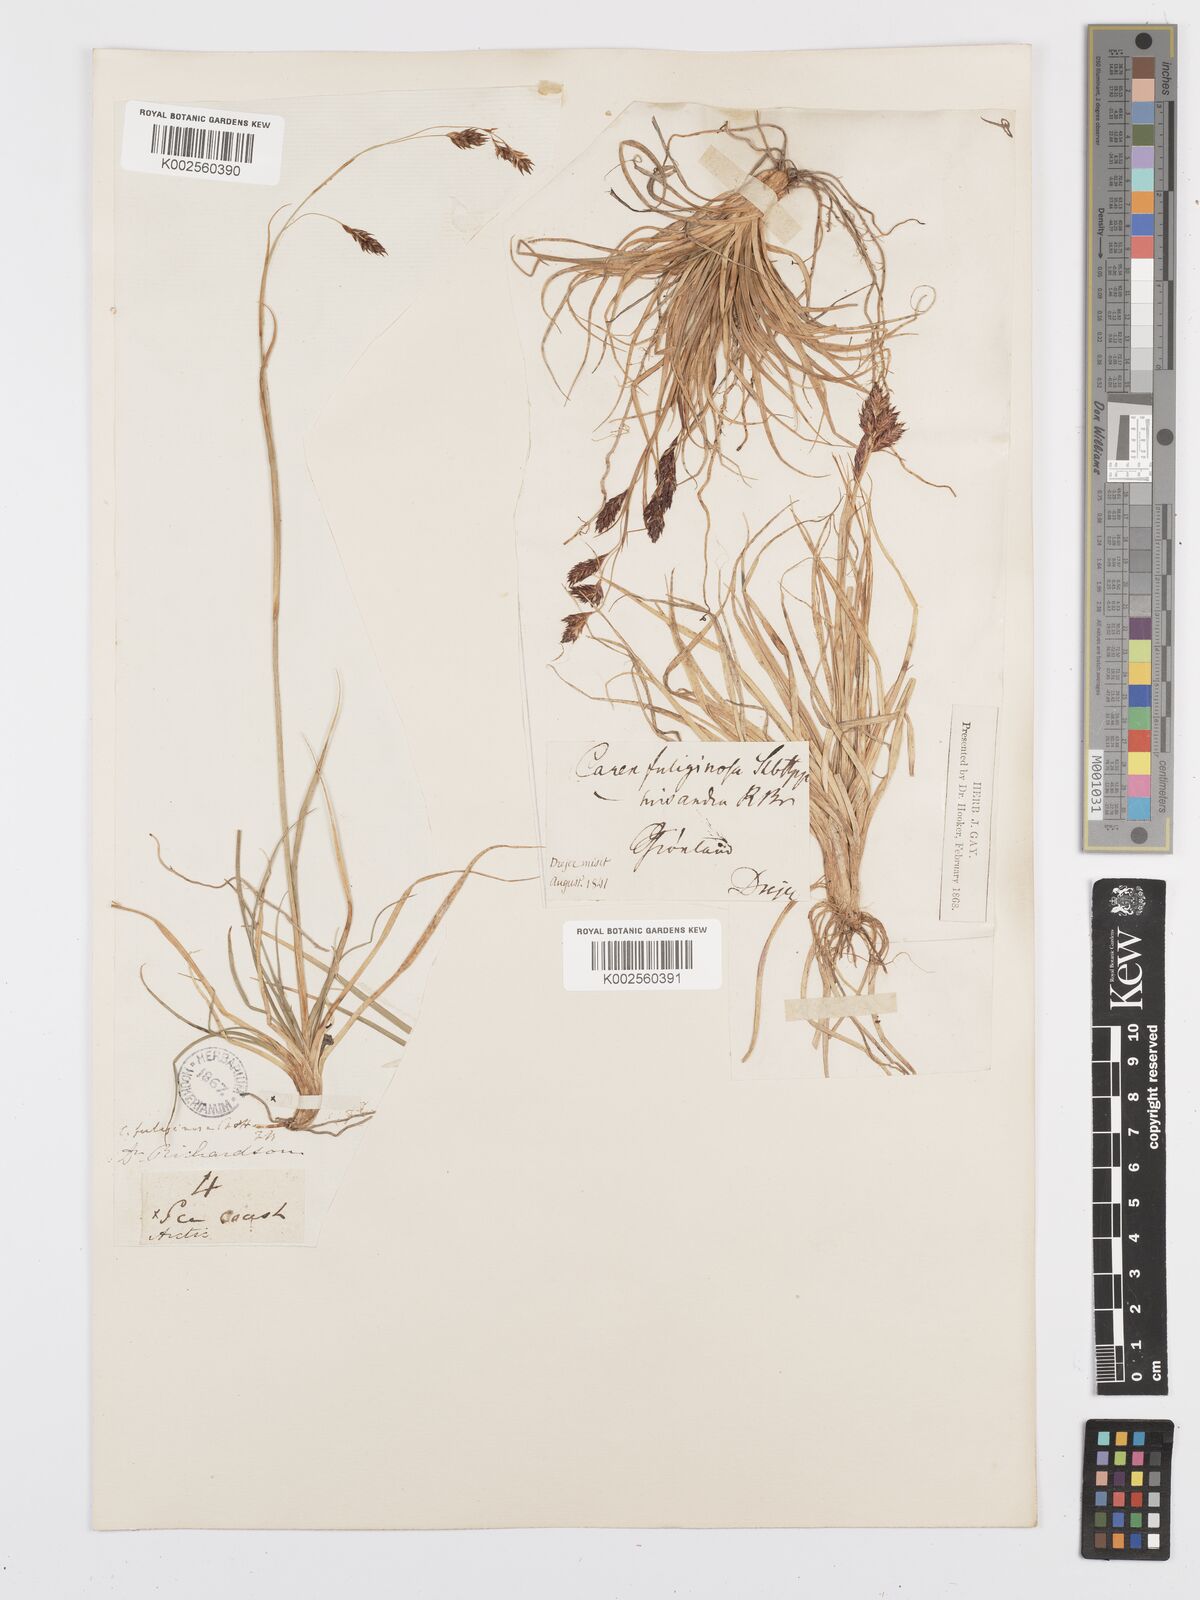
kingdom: Plantae
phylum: Tracheophyta
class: Liliopsida
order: Poales
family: Cyperaceae
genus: Carex
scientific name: Carex fuliginosa
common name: Few-flowered sedge
